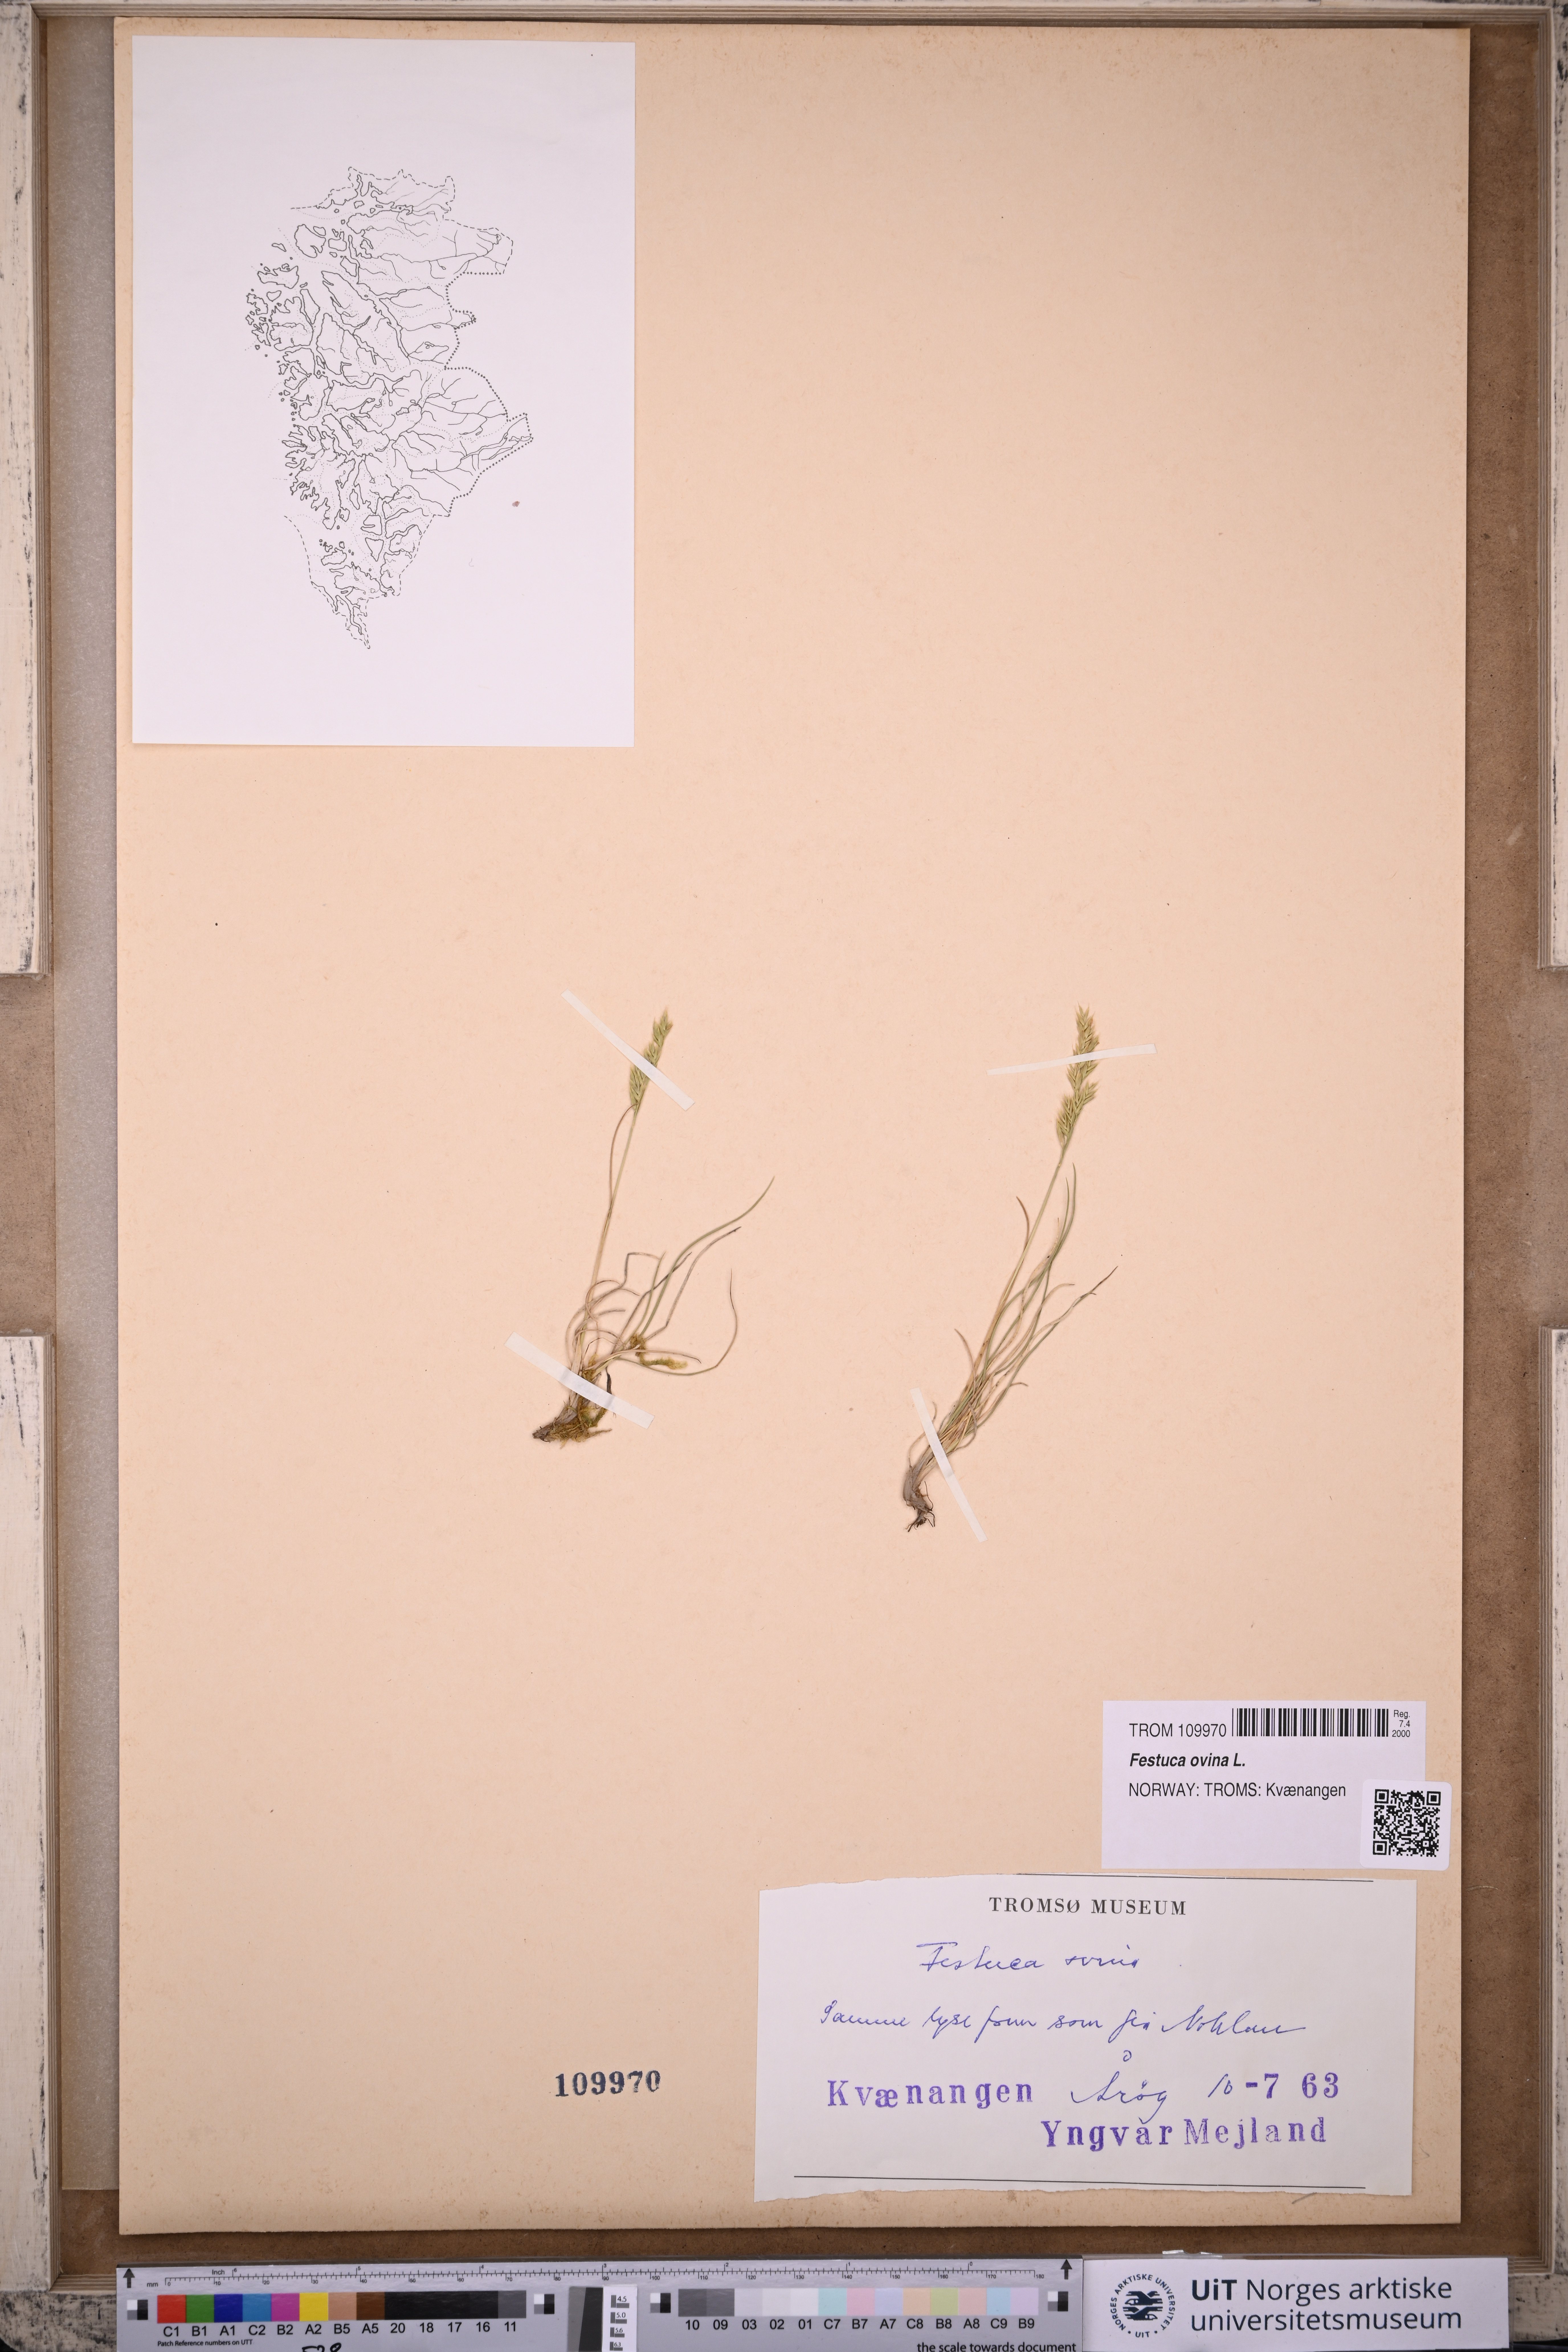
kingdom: Plantae
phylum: Tracheophyta
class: Liliopsida
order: Poales
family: Poaceae
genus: Festuca
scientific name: Festuca ovina
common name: Sheep fescue
